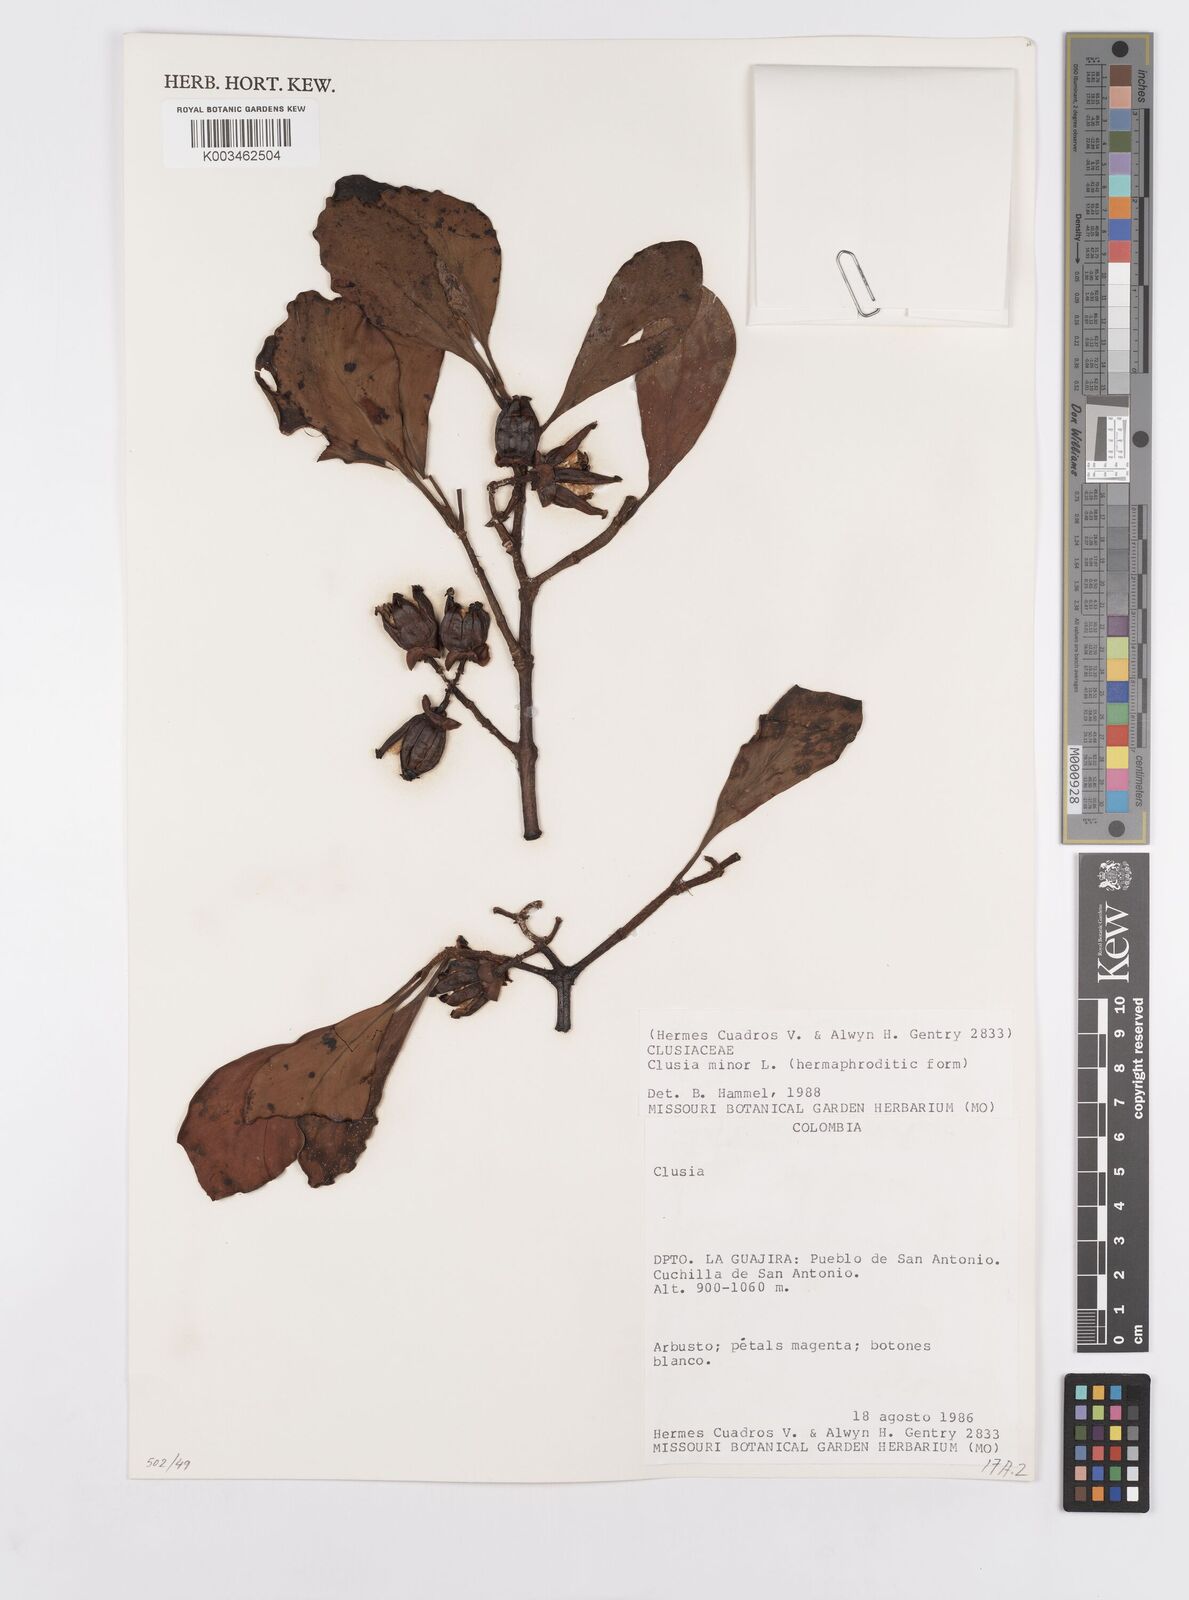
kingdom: Plantae
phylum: Tracheophyta
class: Magnoliopsida
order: Malpighiales
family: Clusiaceae
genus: Clusia
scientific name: Clusia minor
